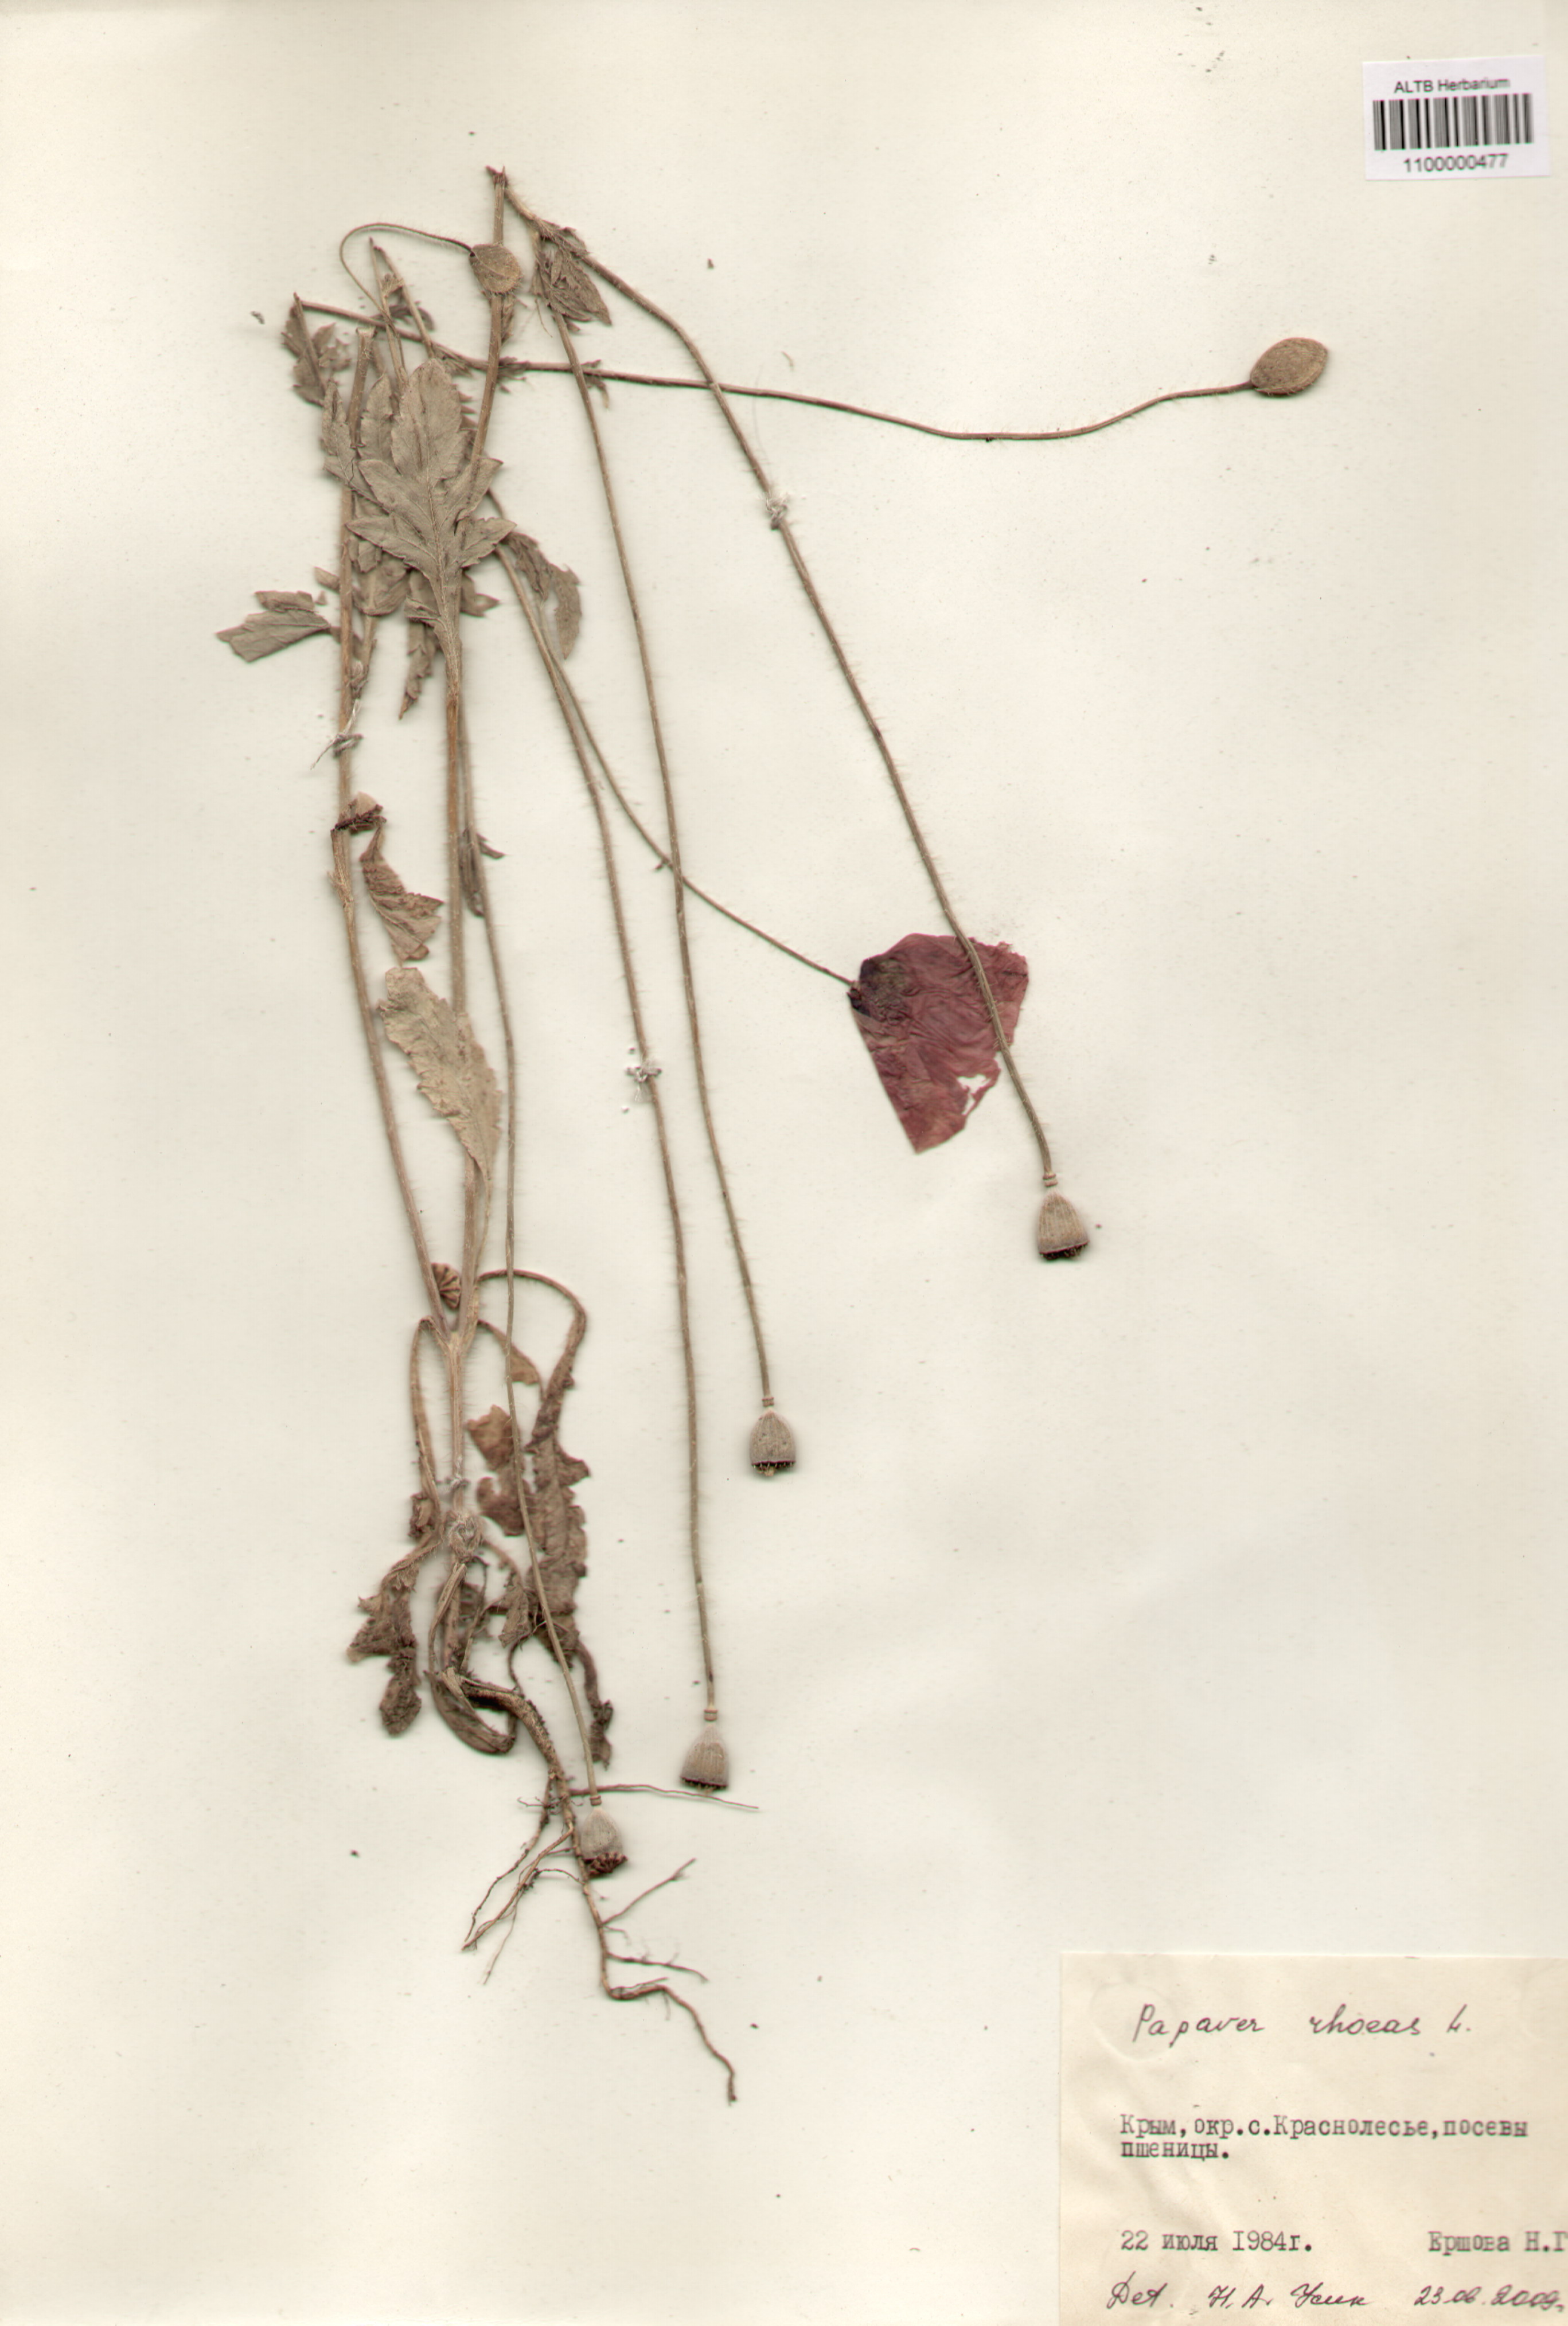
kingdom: Plantae
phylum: Tracheophyta
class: Magnoliopsida
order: Ranunculales
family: Papaveraceae
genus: Papaver
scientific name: Papaver rhoeas
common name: Corn poppy
